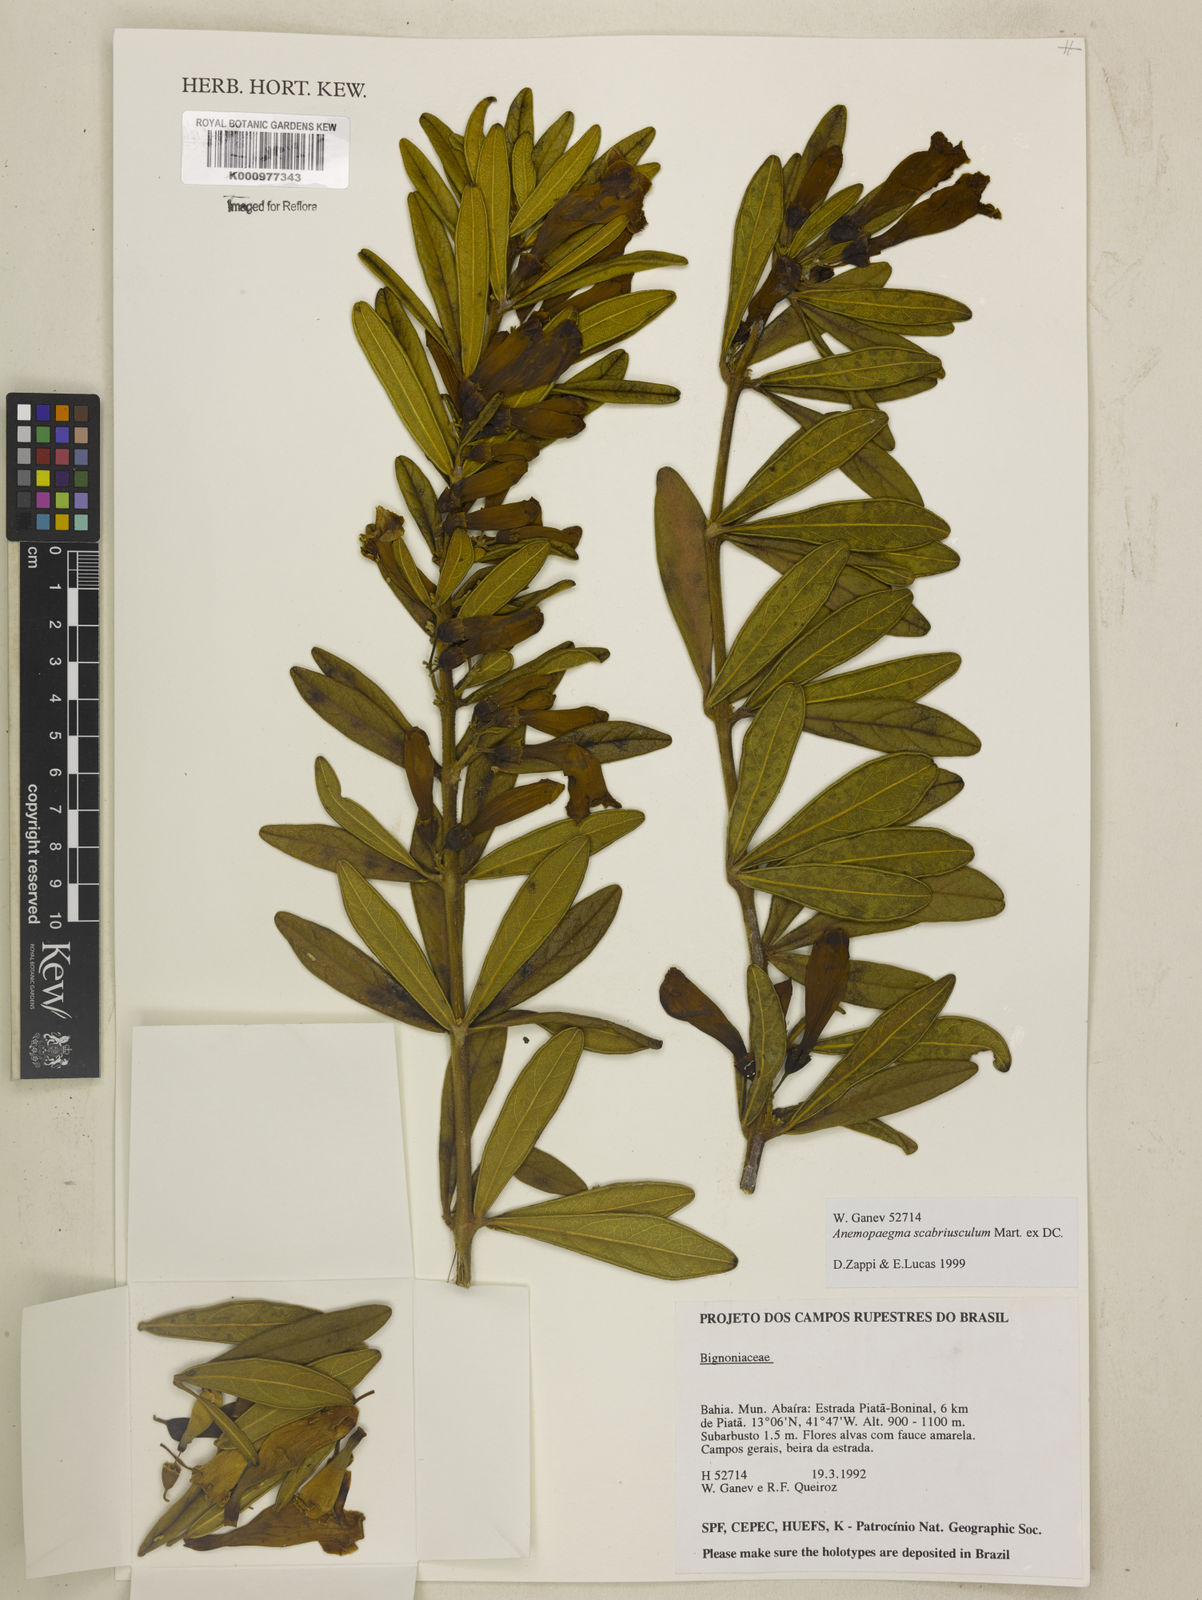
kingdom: Plantae
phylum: Tracheophyta
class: Magnoliopsida
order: Lamiales
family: Bignoniaceae
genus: Anemopaegma
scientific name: Anemopaegma scabriusculum
